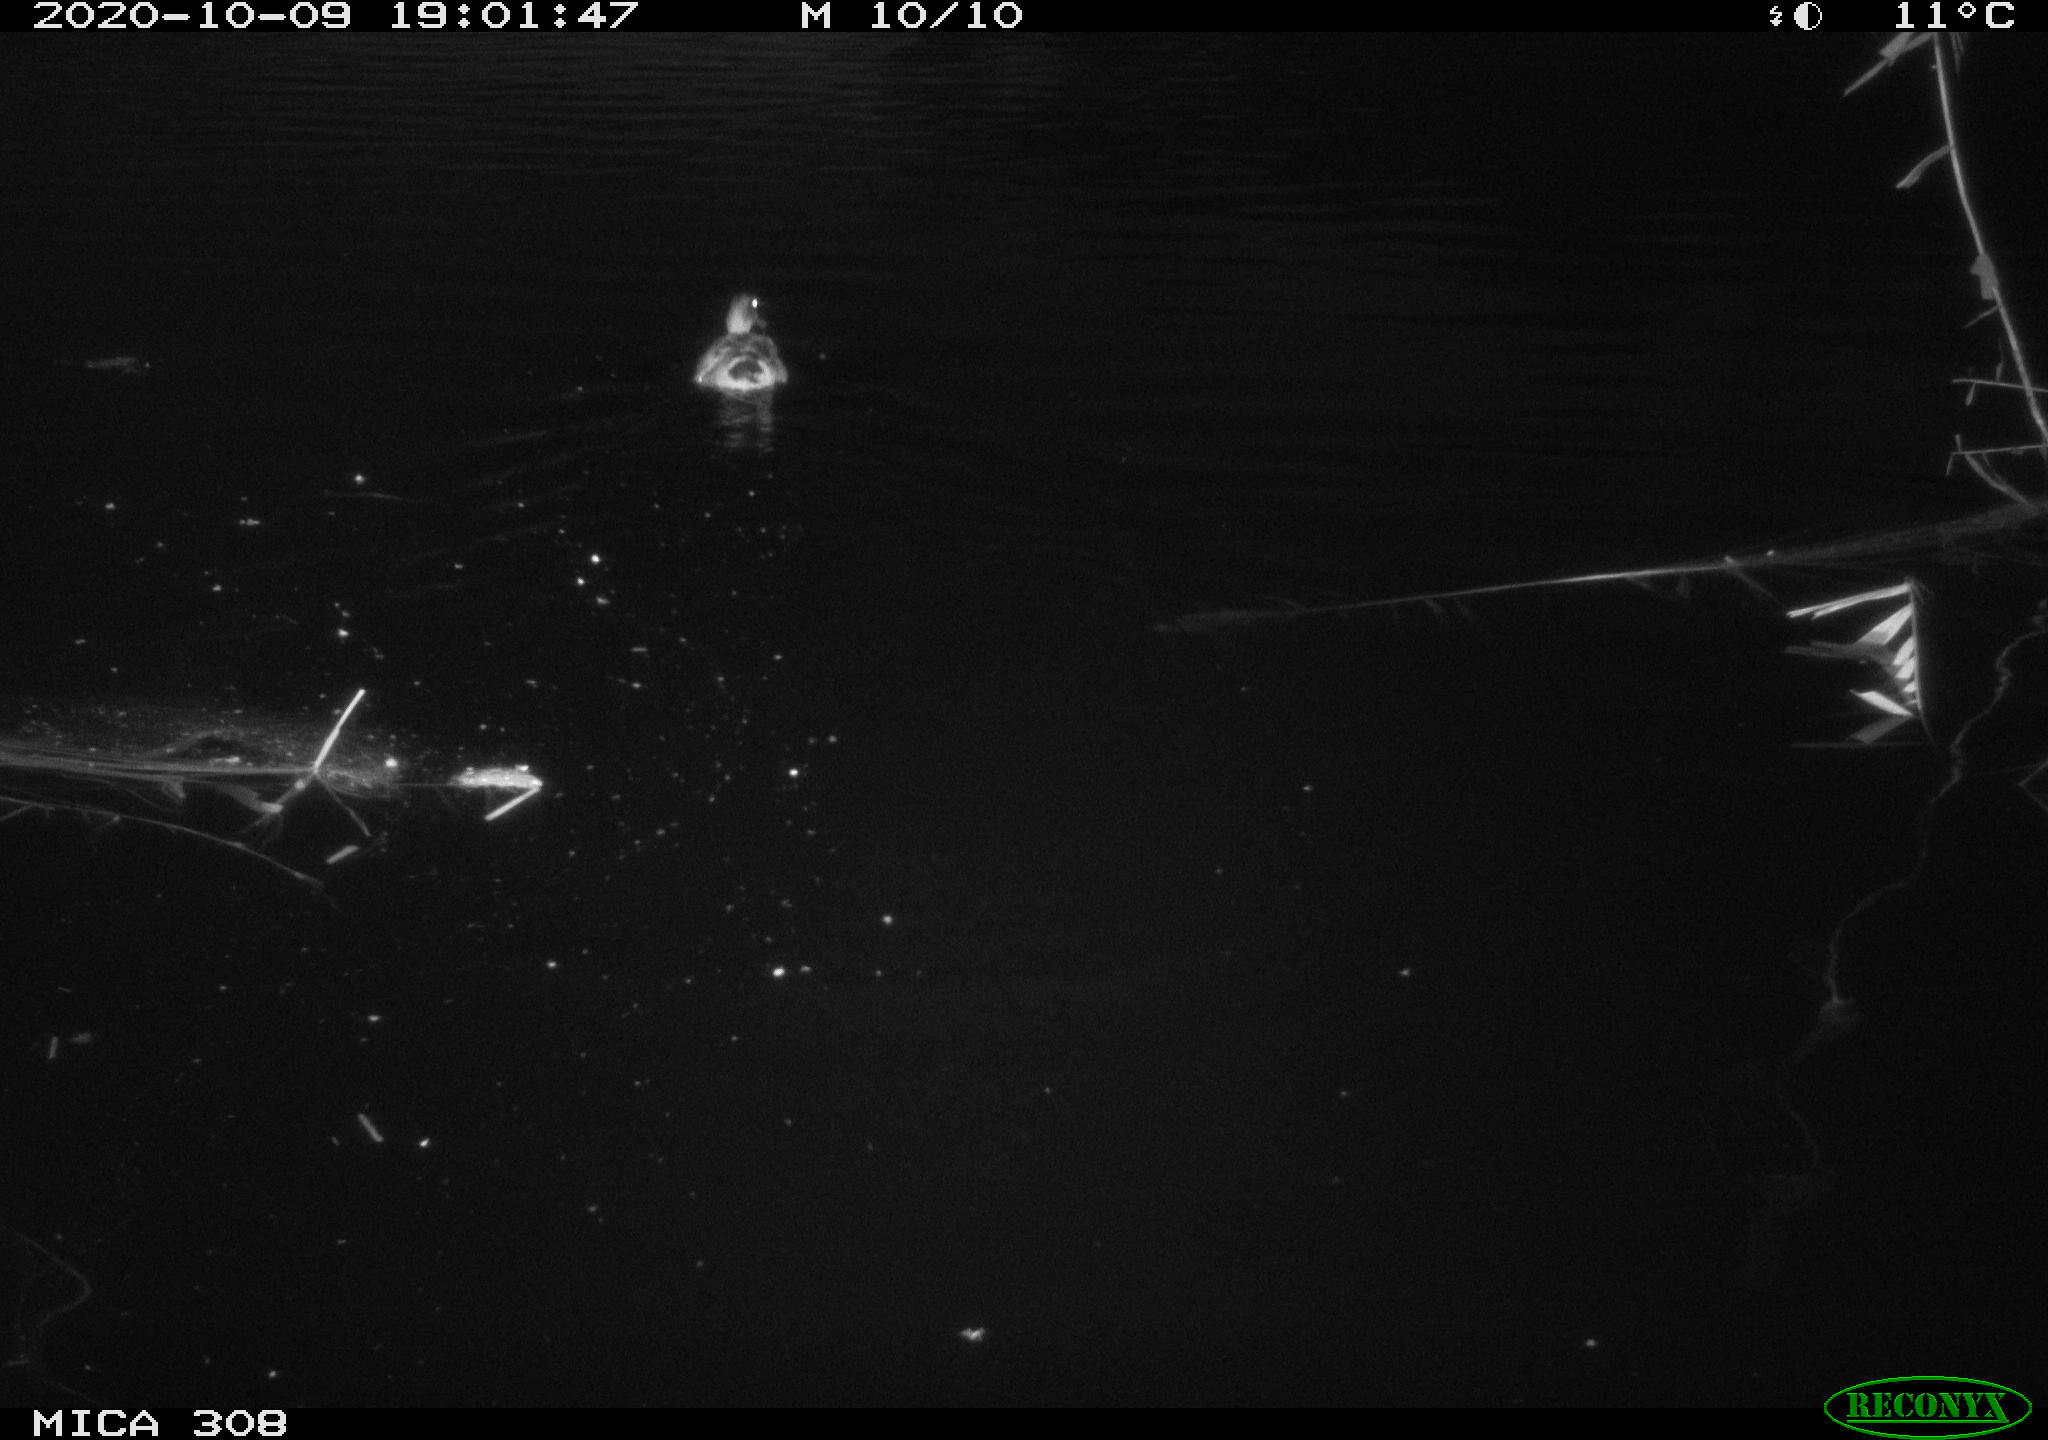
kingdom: Animalia
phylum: Chordata
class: Aves
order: Anseriformes
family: Anatidae
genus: Anas
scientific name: Anas platyrhynchos
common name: Mallard
